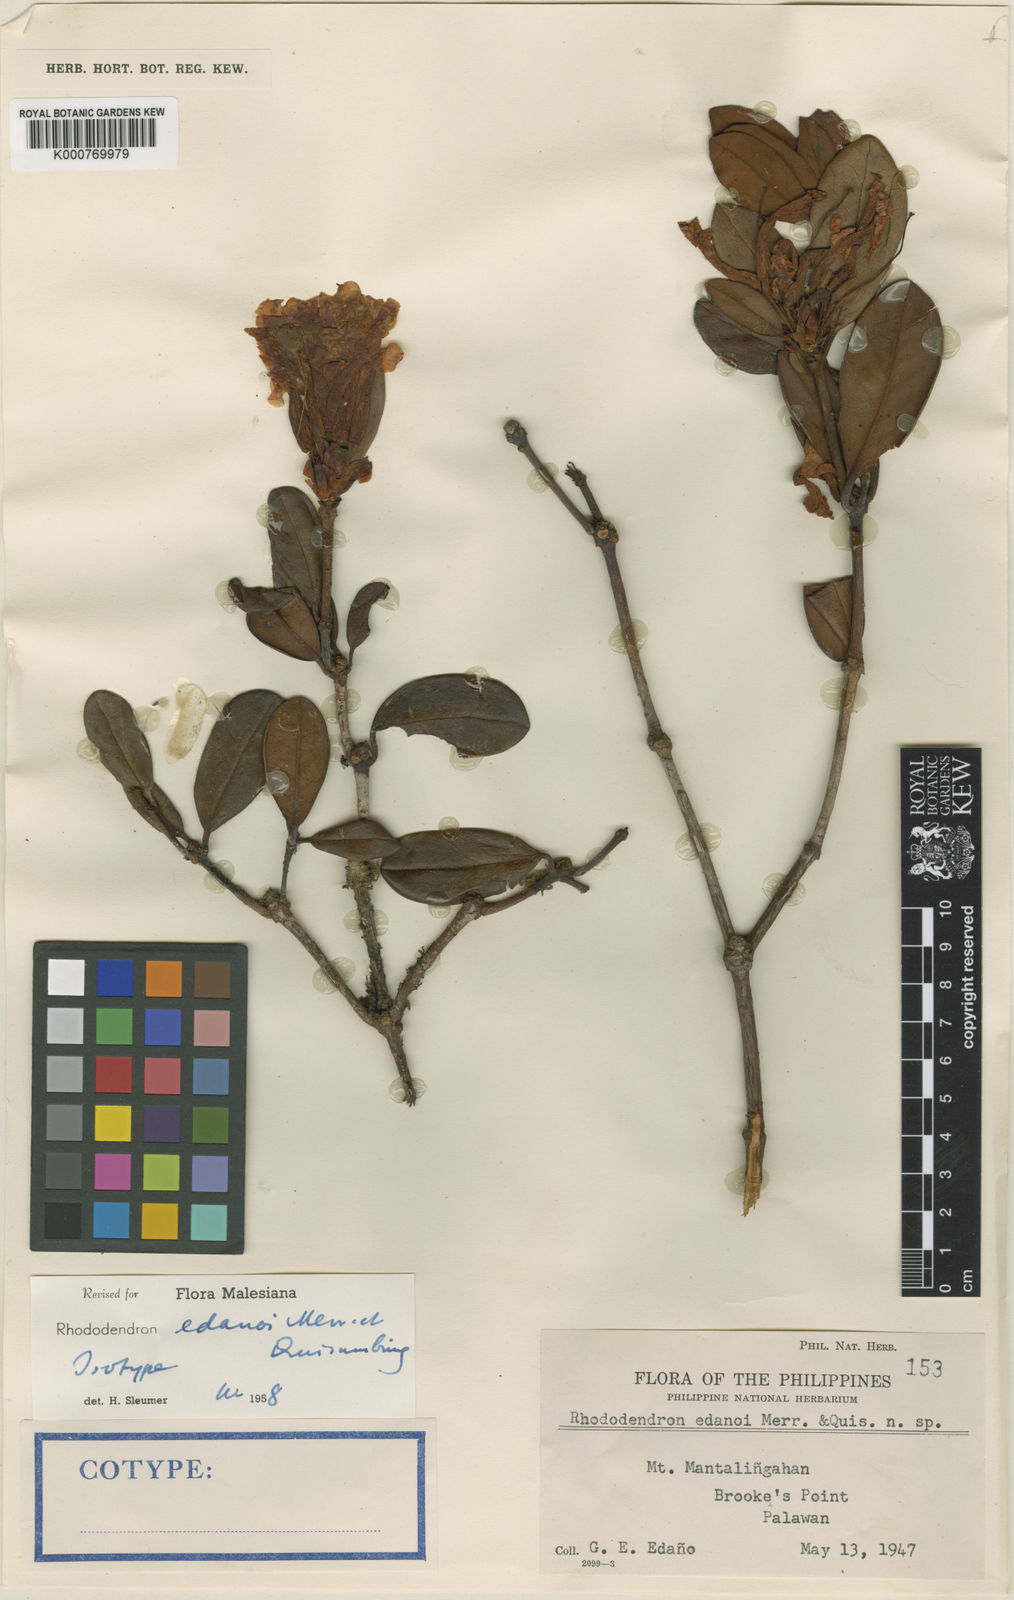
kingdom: Plantae
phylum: Tracheophyta
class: Magnoliopsida
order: Ericales
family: Ericaceae
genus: Rhododendron
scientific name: Rhododendron edanoi
